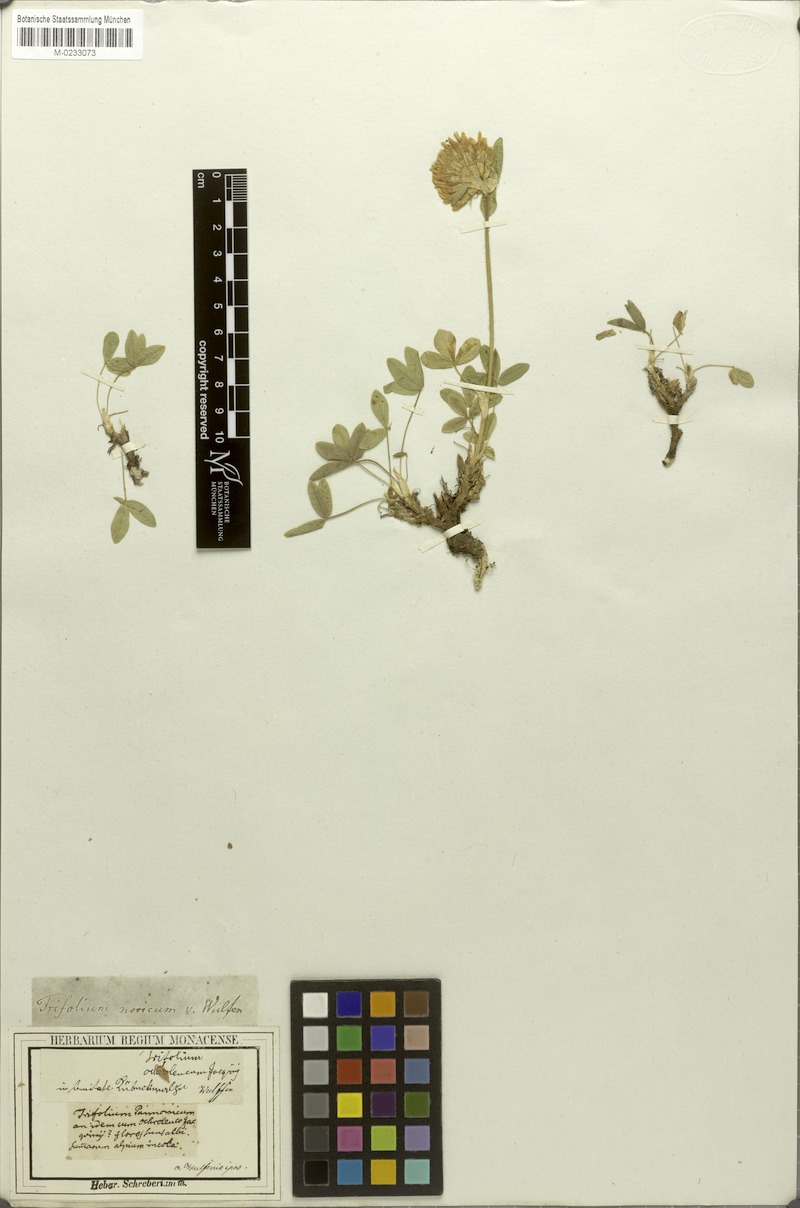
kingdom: Plantae
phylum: Tracheophyta
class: Magnoliopsida
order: Fabales
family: Fabaceae
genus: Trifolium
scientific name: Trifolium noricum
